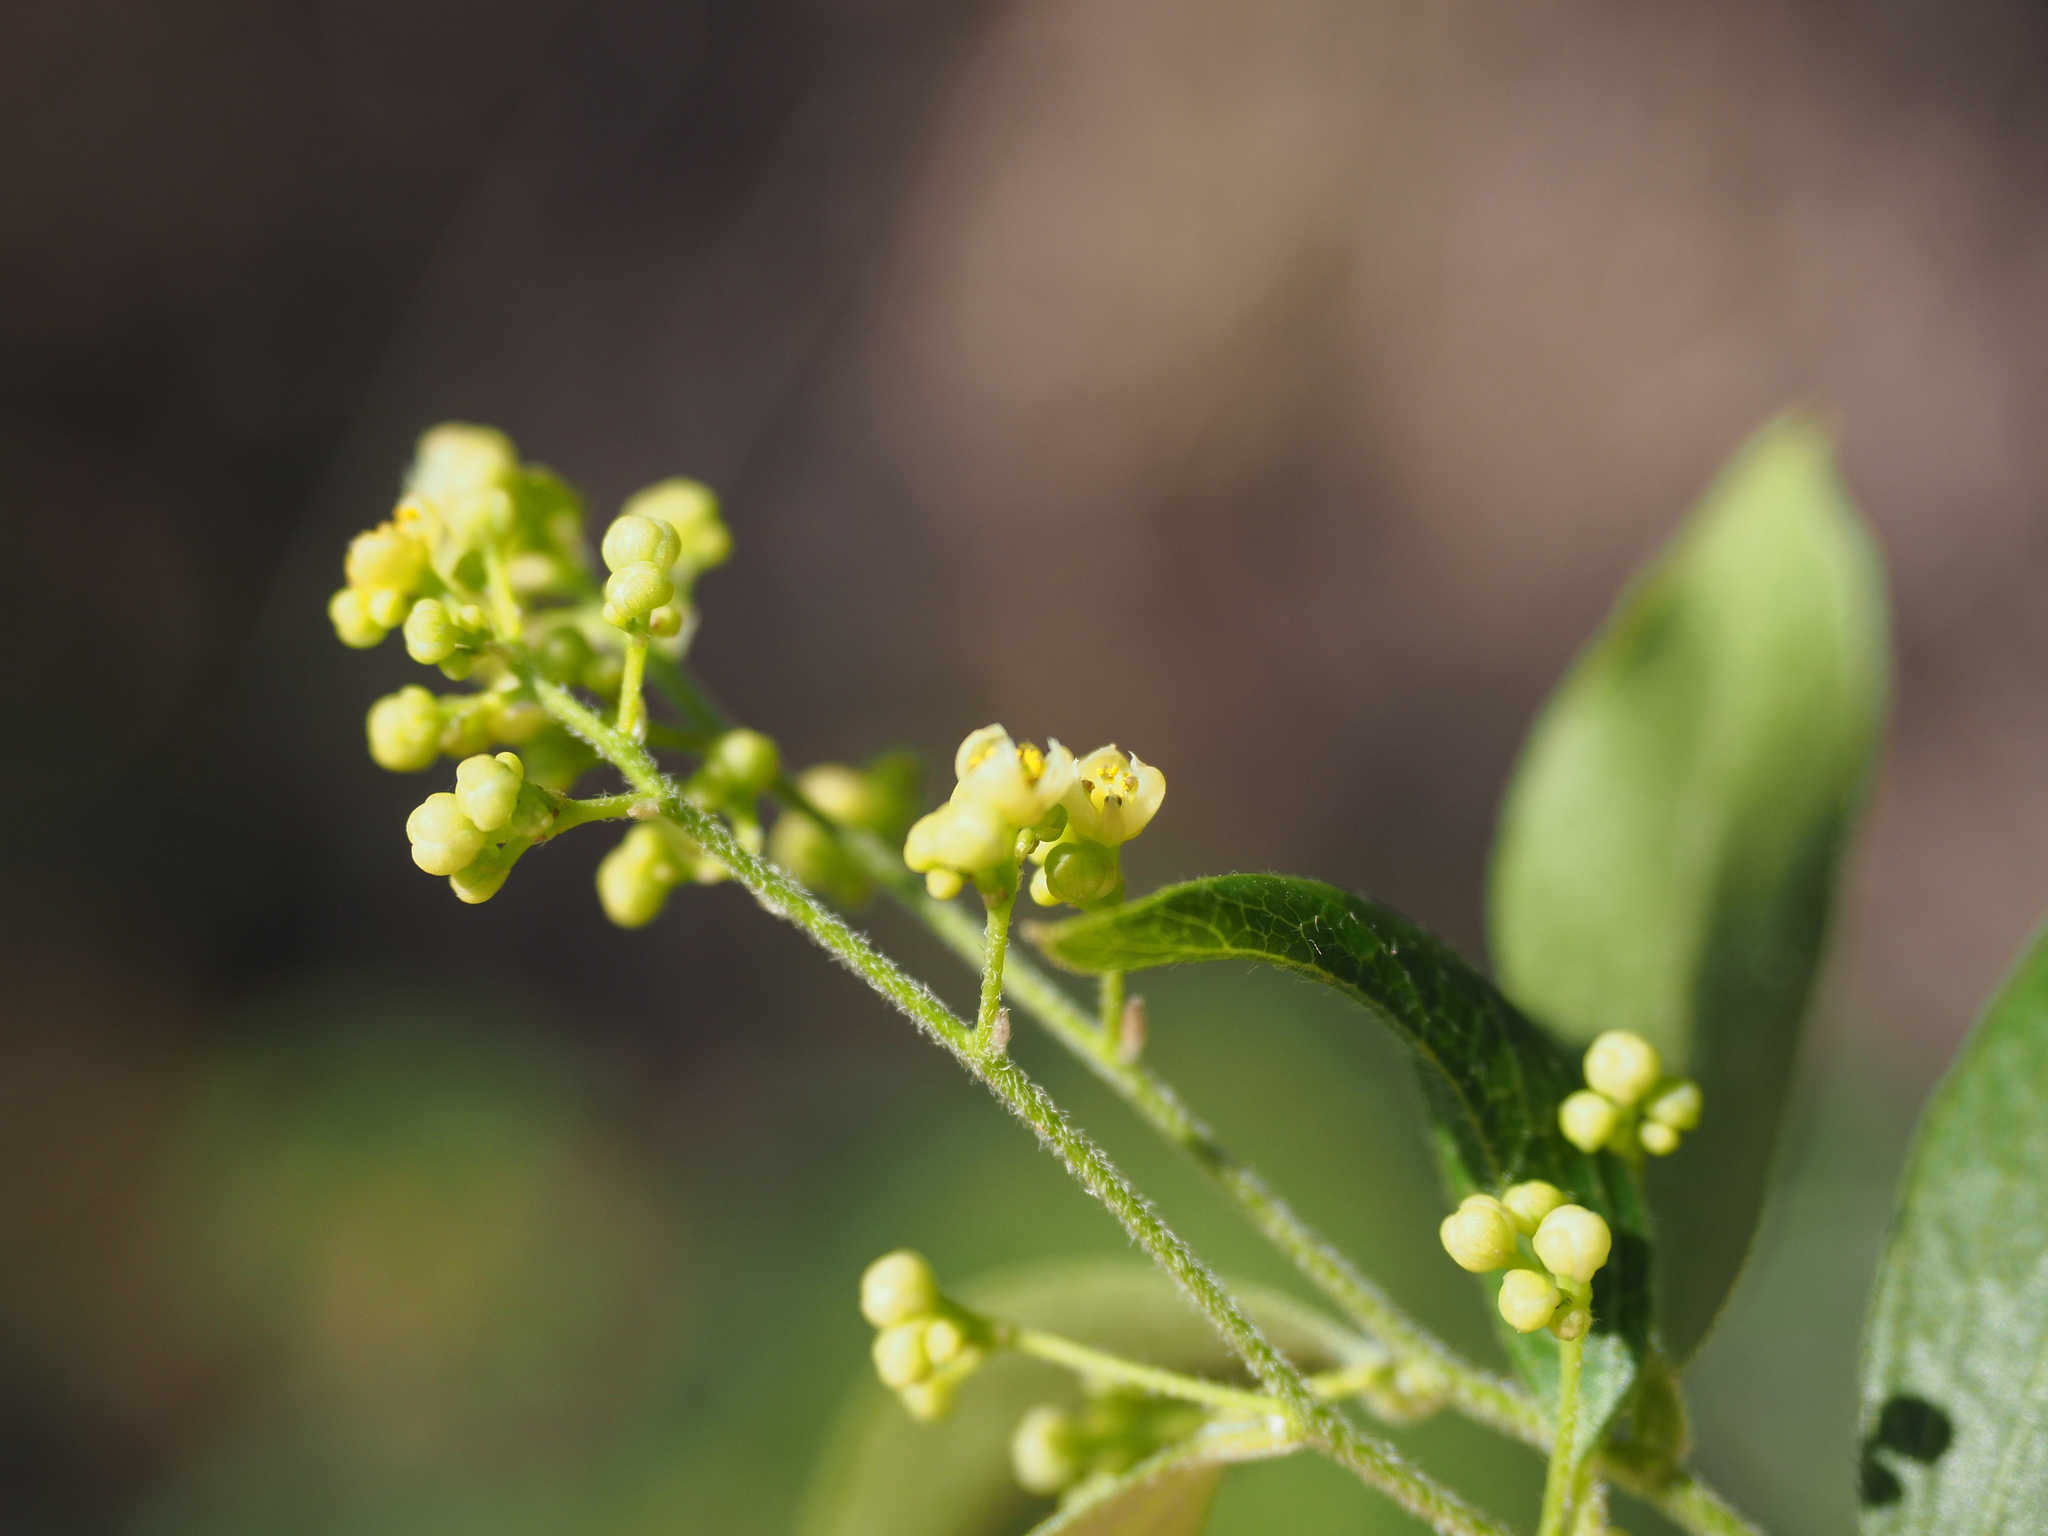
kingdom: Plantae
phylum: Tracheophyta
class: Magnoliopsida
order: Ranunculales
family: Menispermaceae
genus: Cocculus
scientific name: Cocculus orbiculatus
